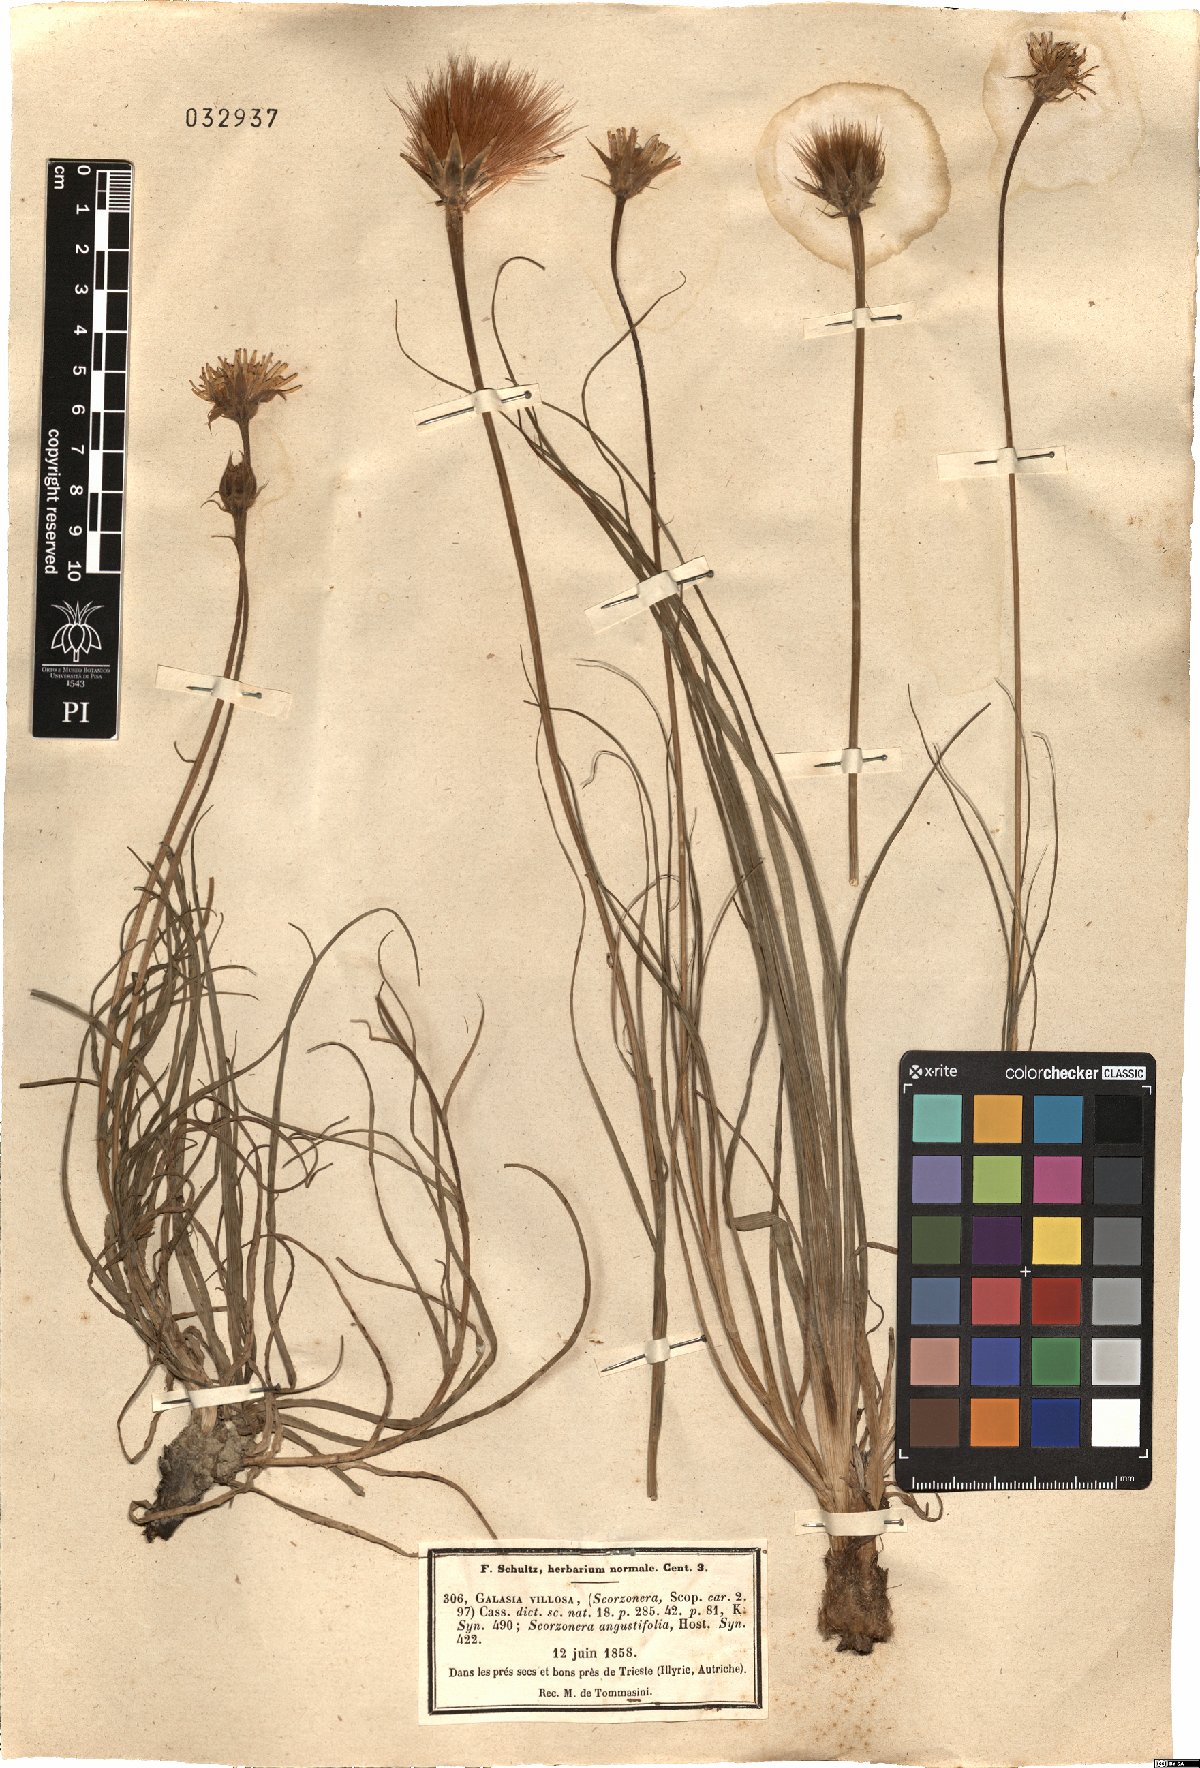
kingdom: Plantae
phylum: Tracheophyta
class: Magnoliopsida
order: Asterales
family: Asteraceae
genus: Gelasia
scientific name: Gelasia villosa
